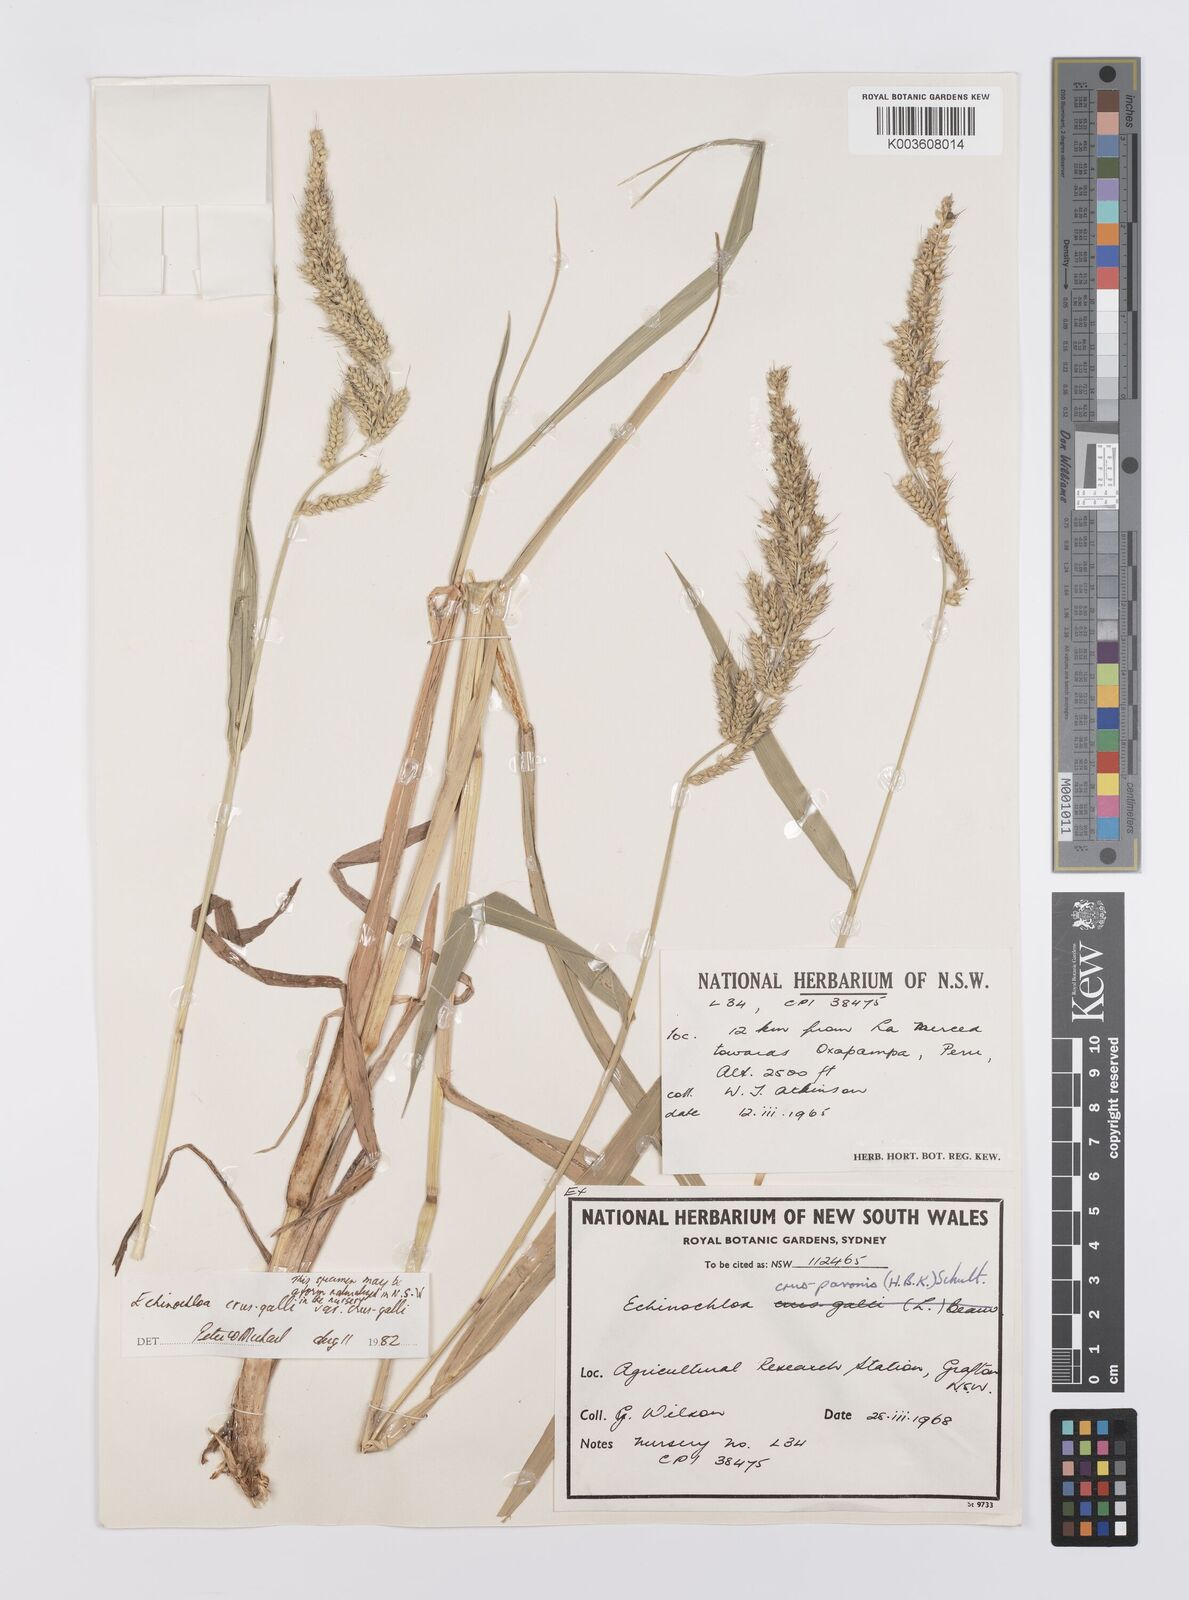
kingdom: Plantae
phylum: Tracheophyta
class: Liliopsida
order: Poales
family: Poaceae
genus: Echinochloa
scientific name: Echinochloa crus-galli
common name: Cockspur
